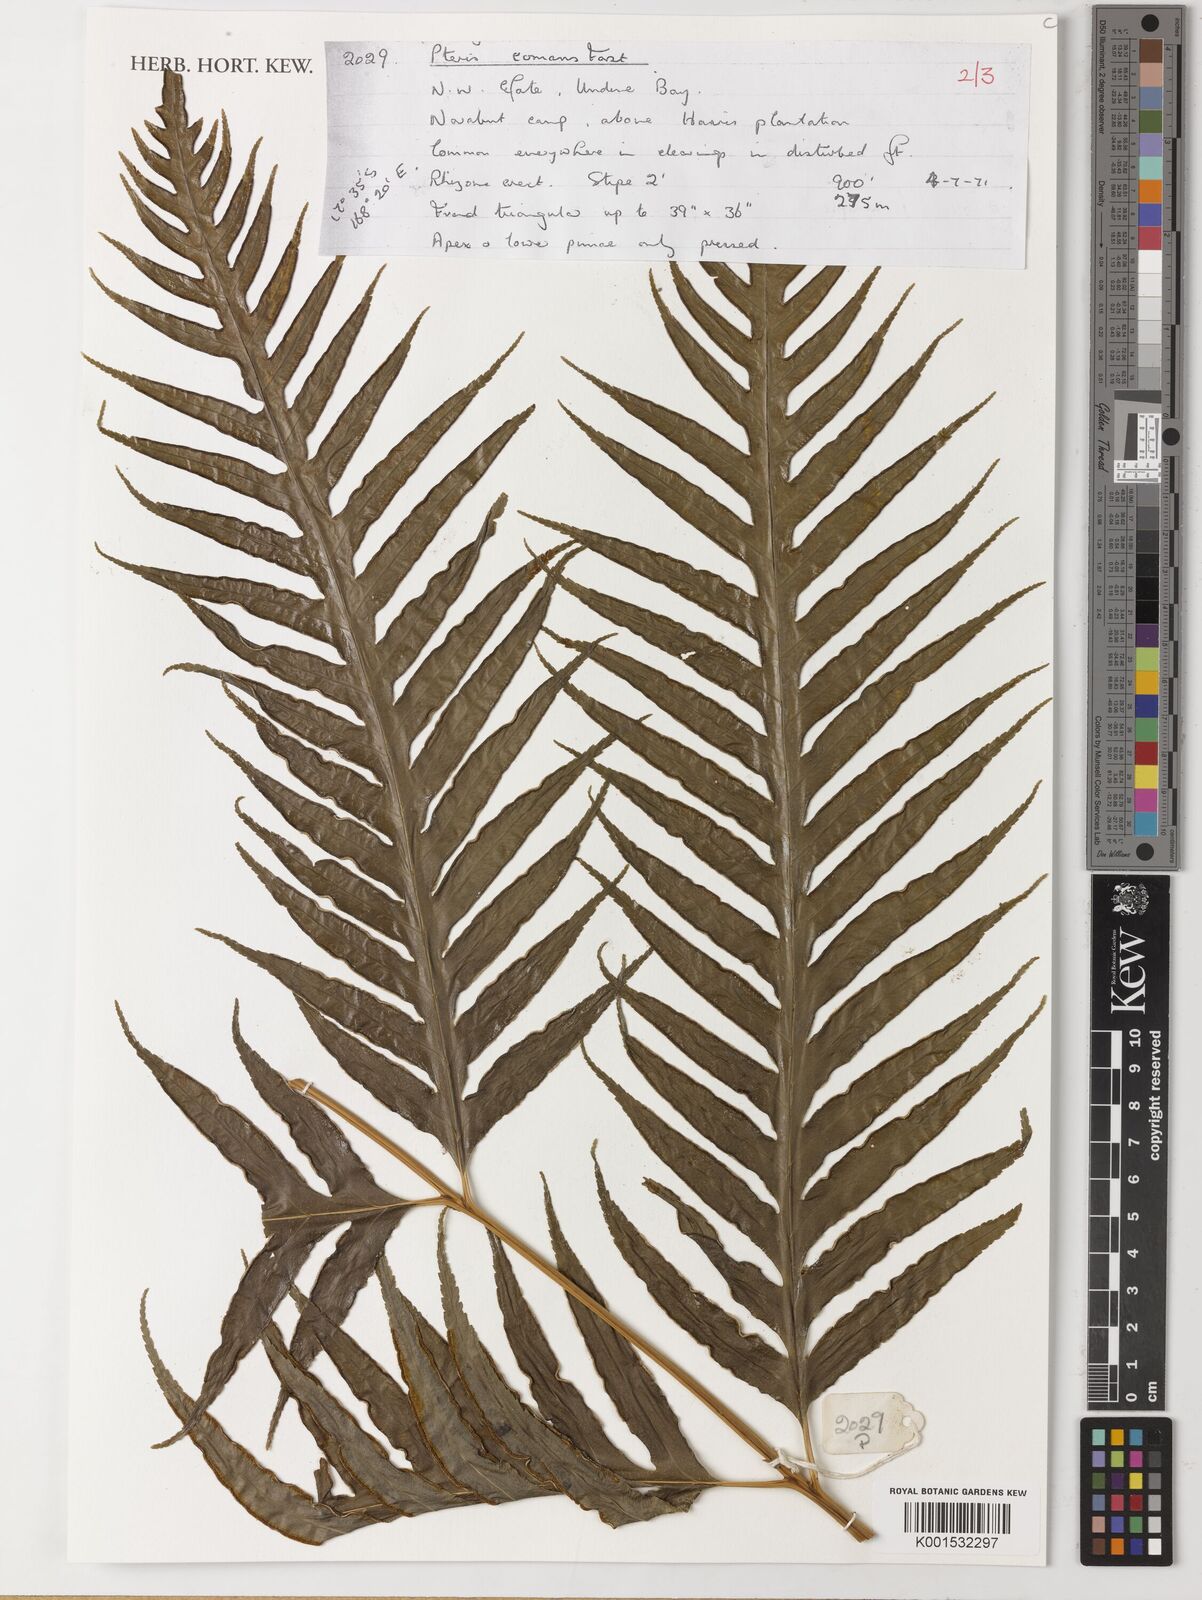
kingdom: Plantae
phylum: Tracheophyta
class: Polypodiopsida
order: Polypodiales
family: Pteridaceae
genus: Pteris
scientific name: Pteris comans
